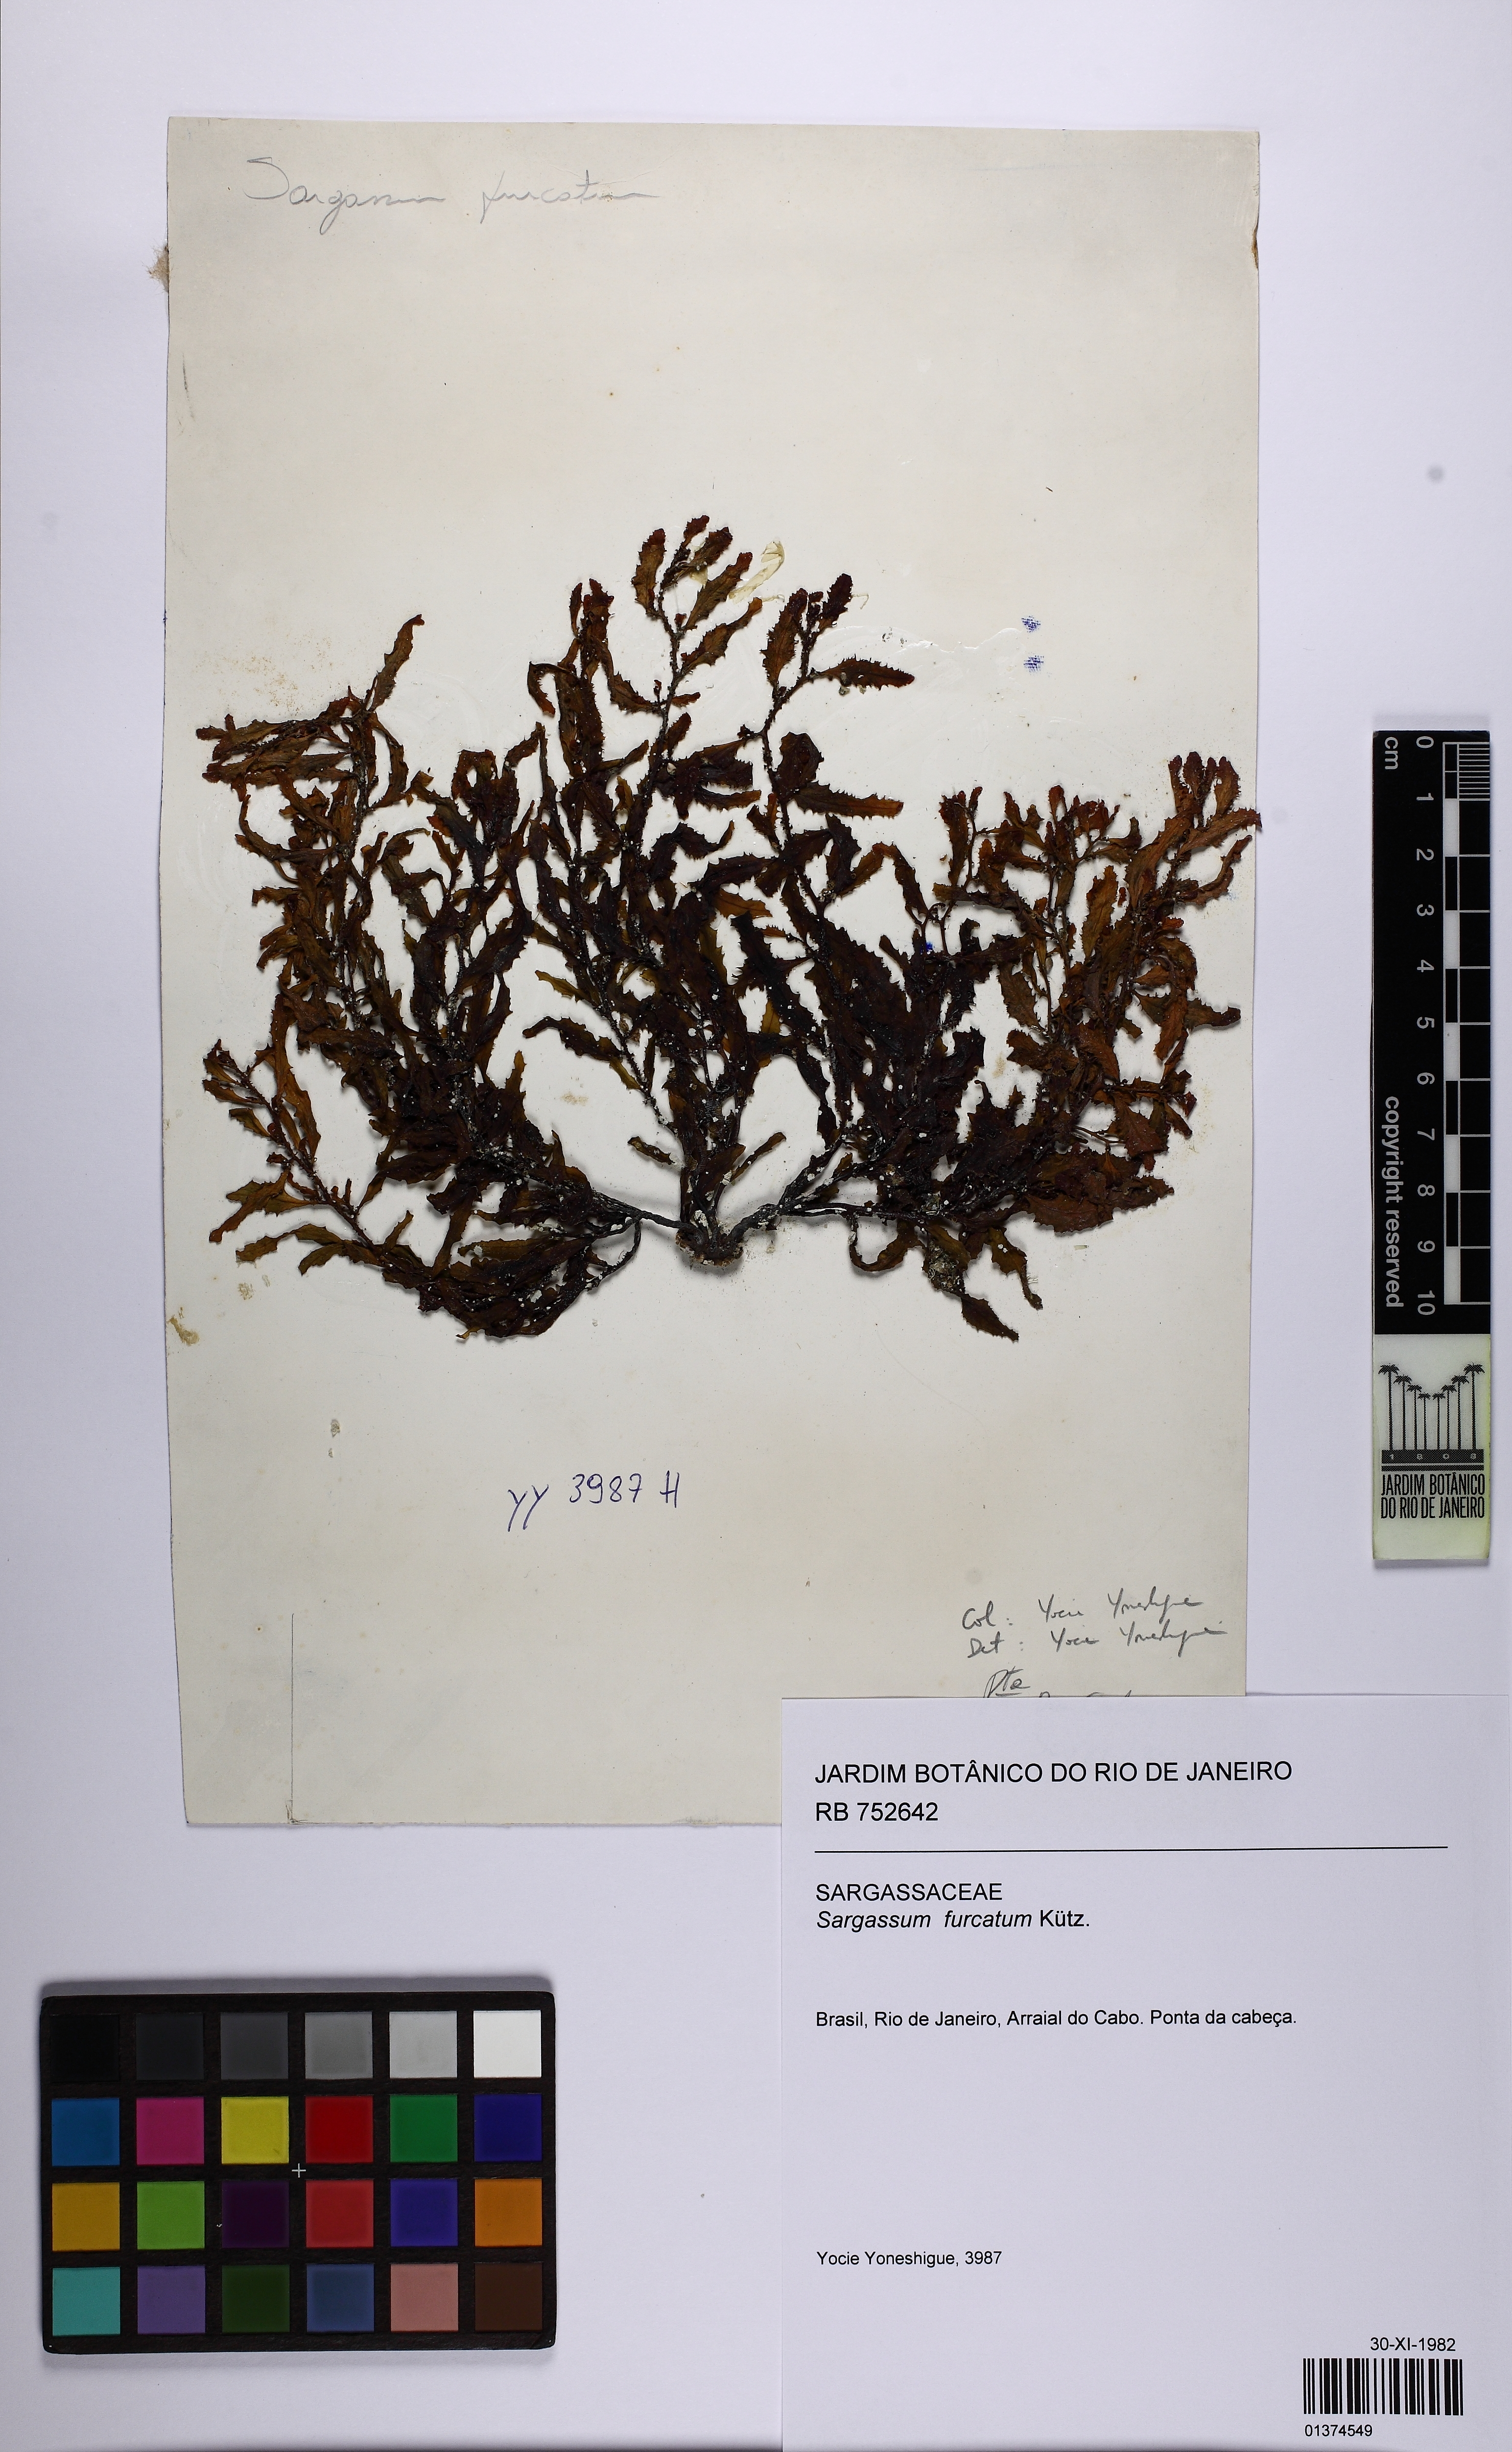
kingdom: Chromista
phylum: Ochrophyta
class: Phaeophyceae
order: Fucales
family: Sargassaceae
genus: Sargassum
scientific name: Sargassum furcatum
